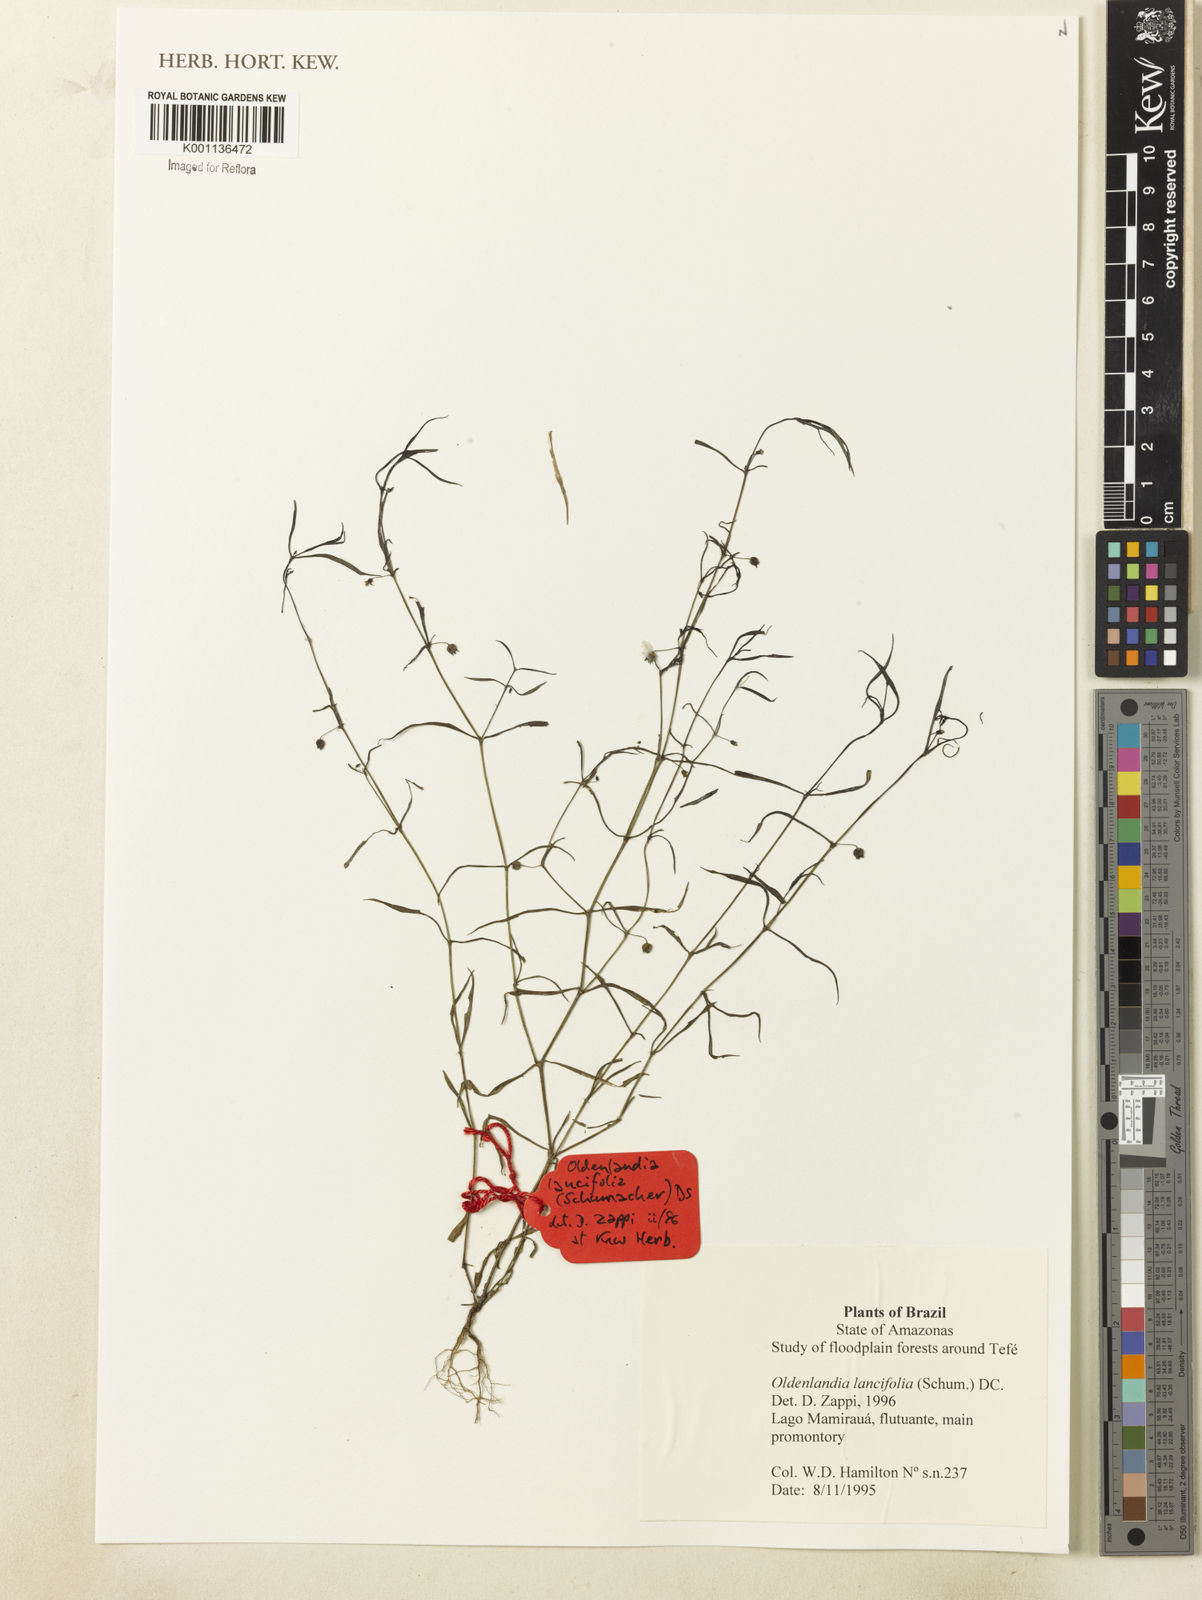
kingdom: Plantae
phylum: Tracheophyta
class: Magnoliopsida
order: Gentianales
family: Rubiaceae
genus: Oldenlandia
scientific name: Oldenlandia lancifolia
